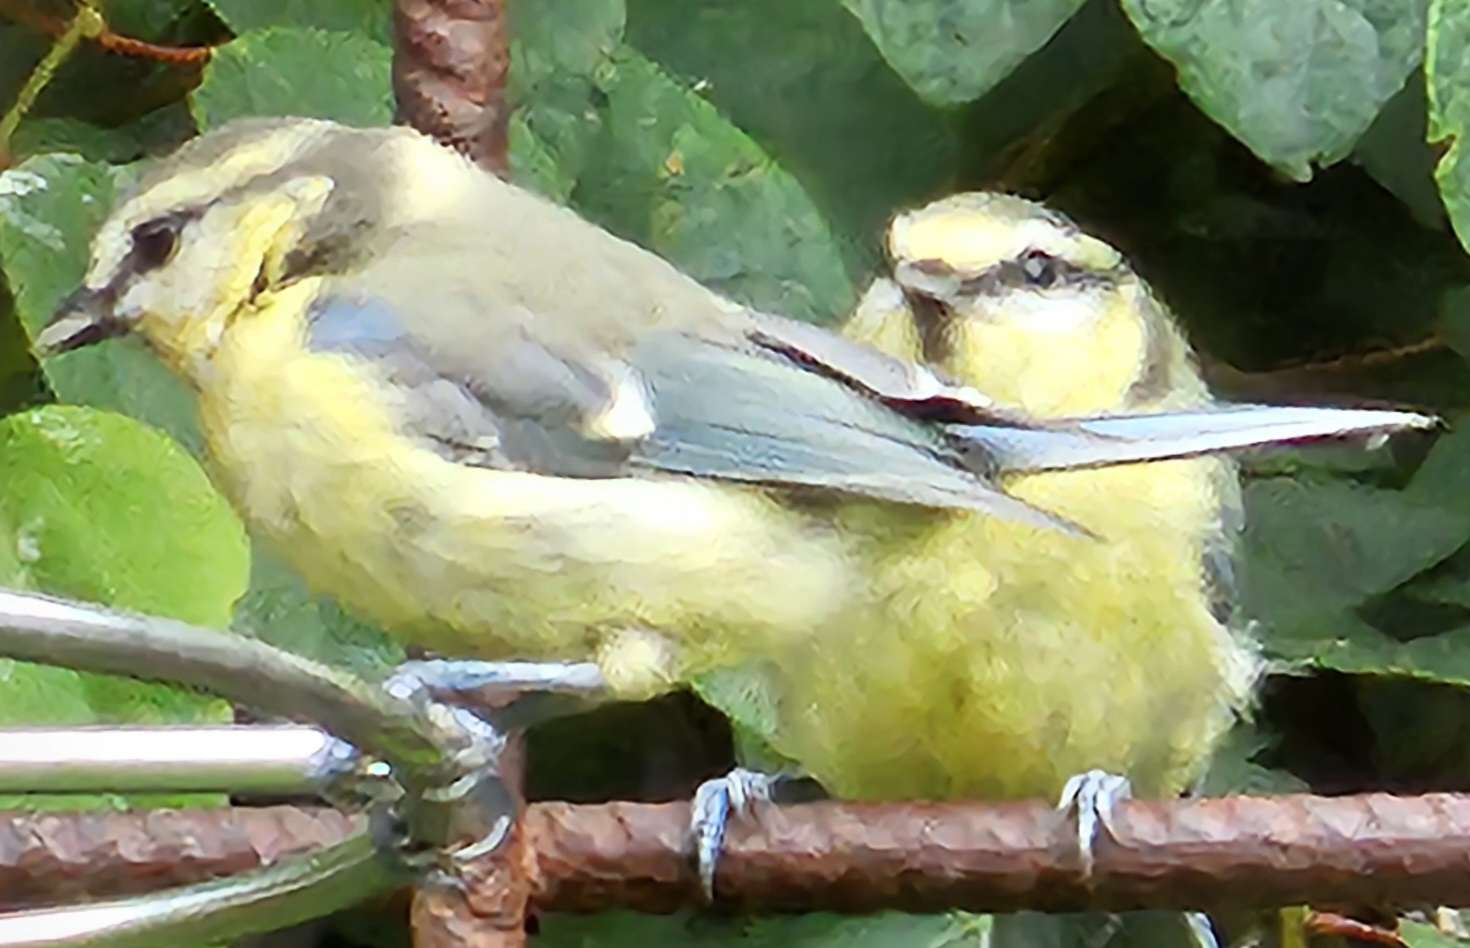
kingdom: Animalia
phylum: Chordata
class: Aves
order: Passeriformes
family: Paridae
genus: Cyanistes
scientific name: Cyanistes caeruleus
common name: Blåmejse
